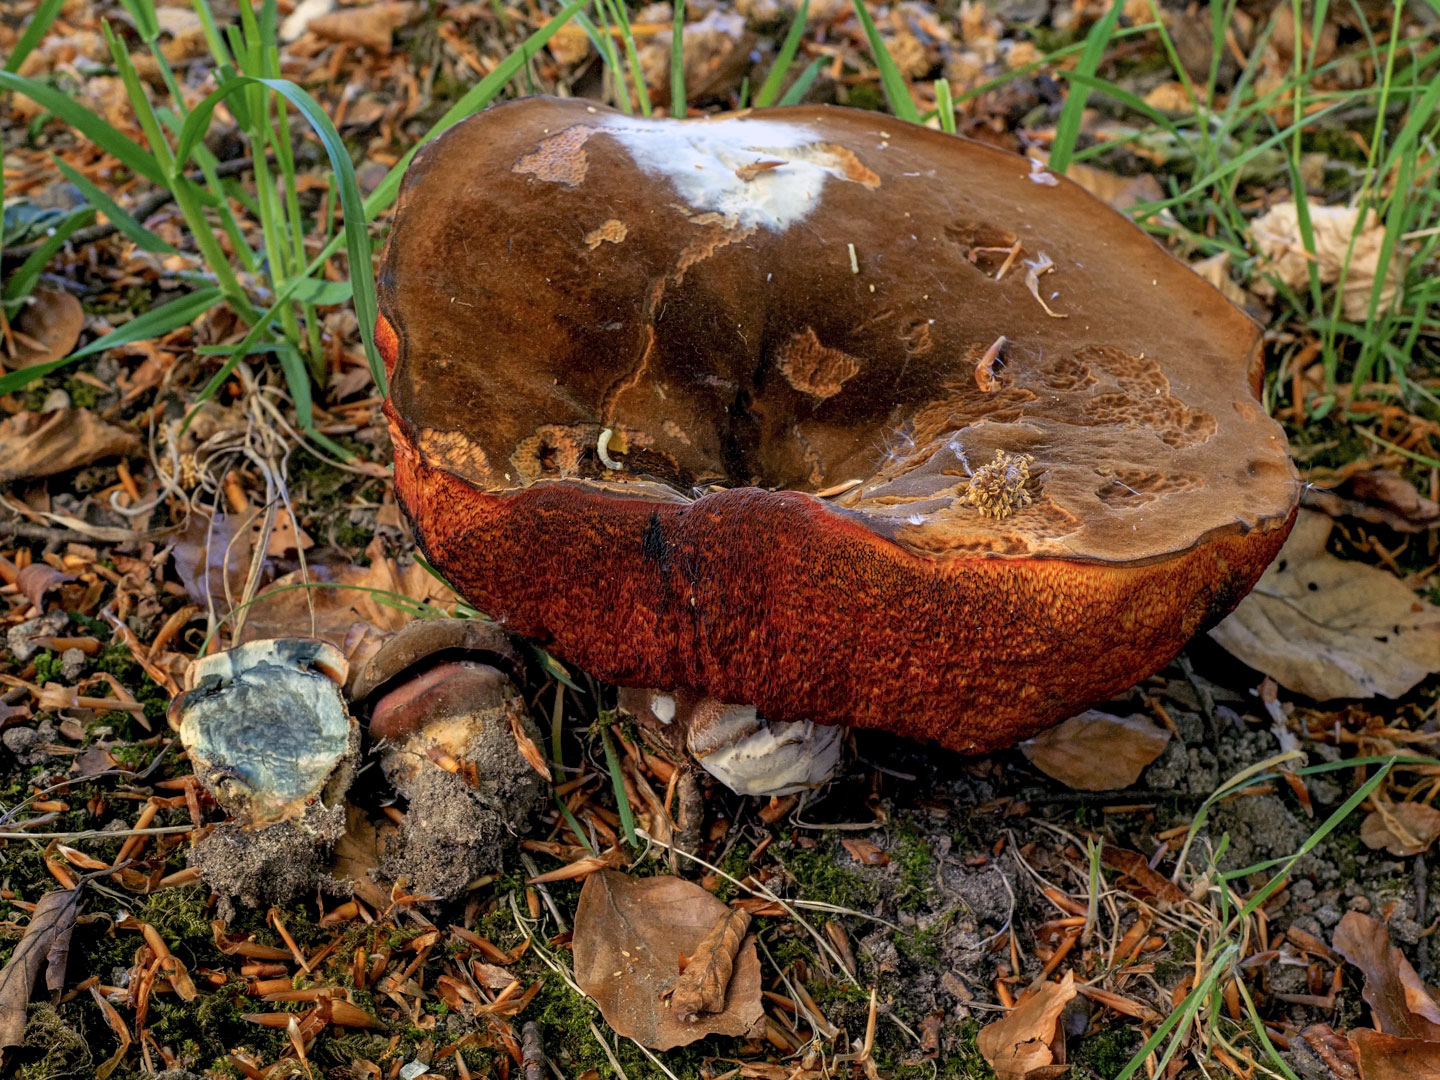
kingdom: Fungi
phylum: Basidiomycota
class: Agaricomycetes
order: Boletales
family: Boletaceae
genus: Neoboletus
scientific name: Neoboletus erythropus
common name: punktstokket indigorørhat
